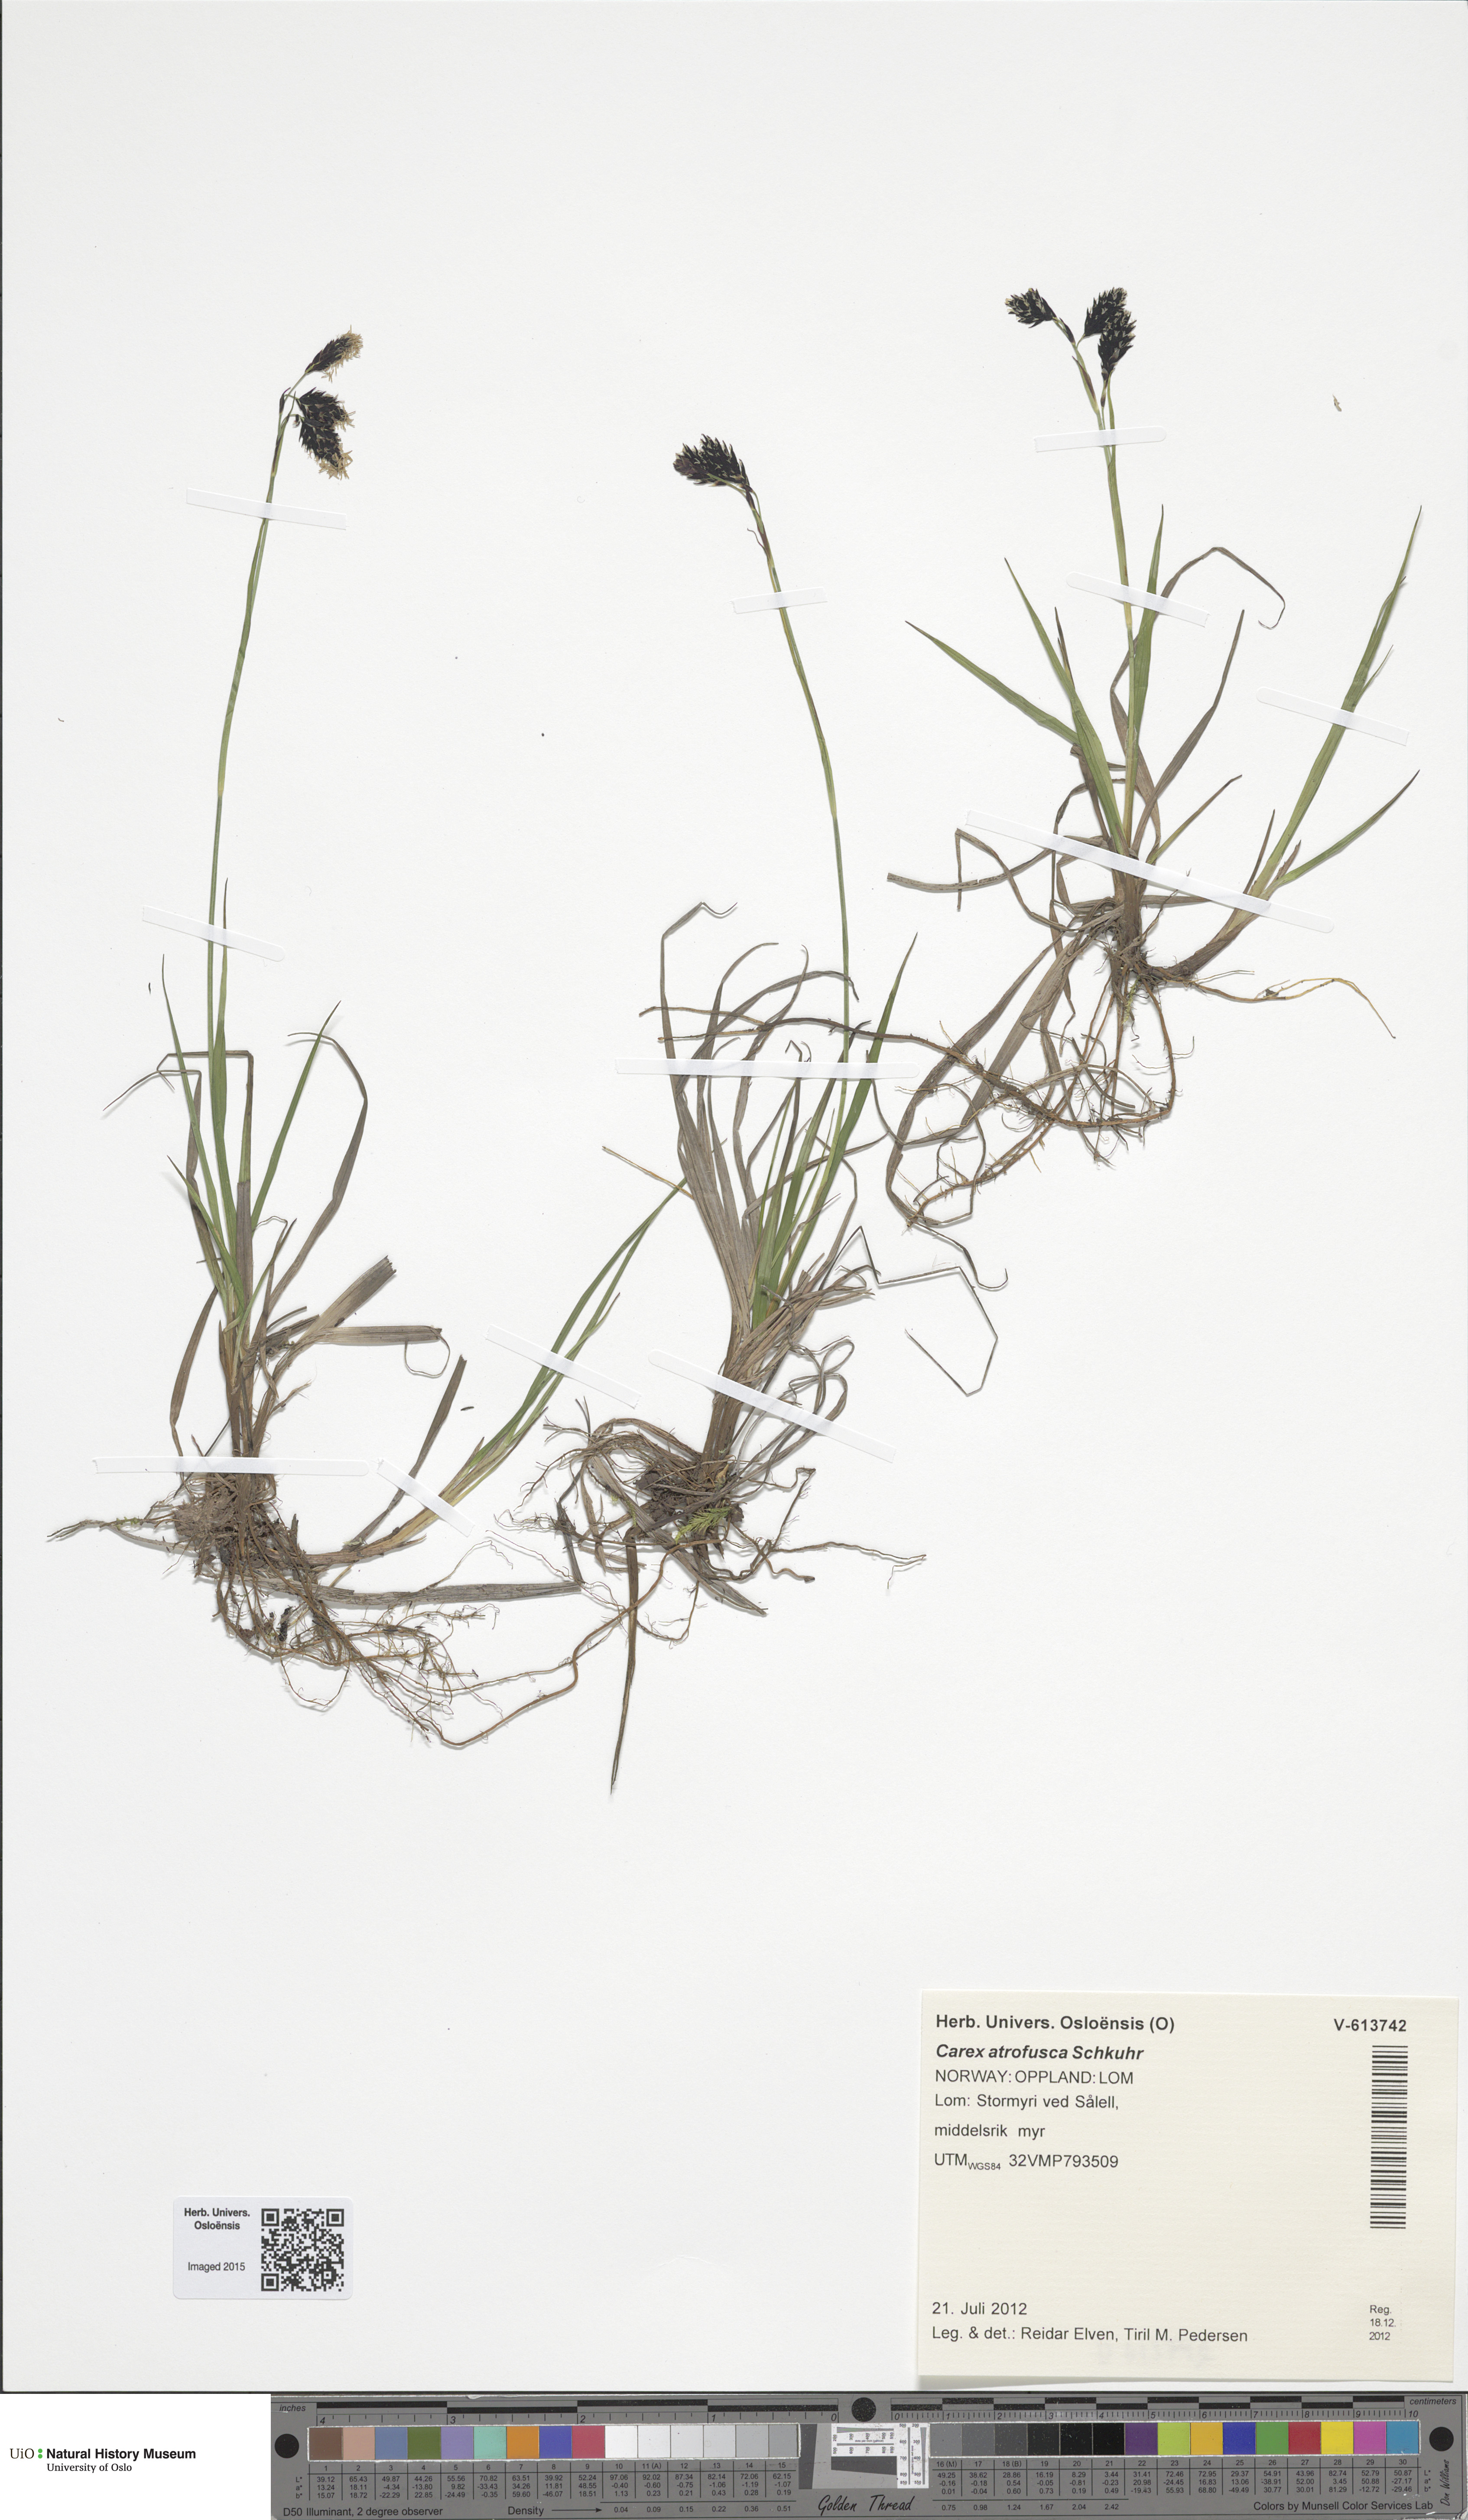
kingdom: Plantae
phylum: Tracheophyta
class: Liliopsida
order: Poales
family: Cyperaceae
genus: Carex
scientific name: Carex atrofusca
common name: Scorched alpine-sedge
